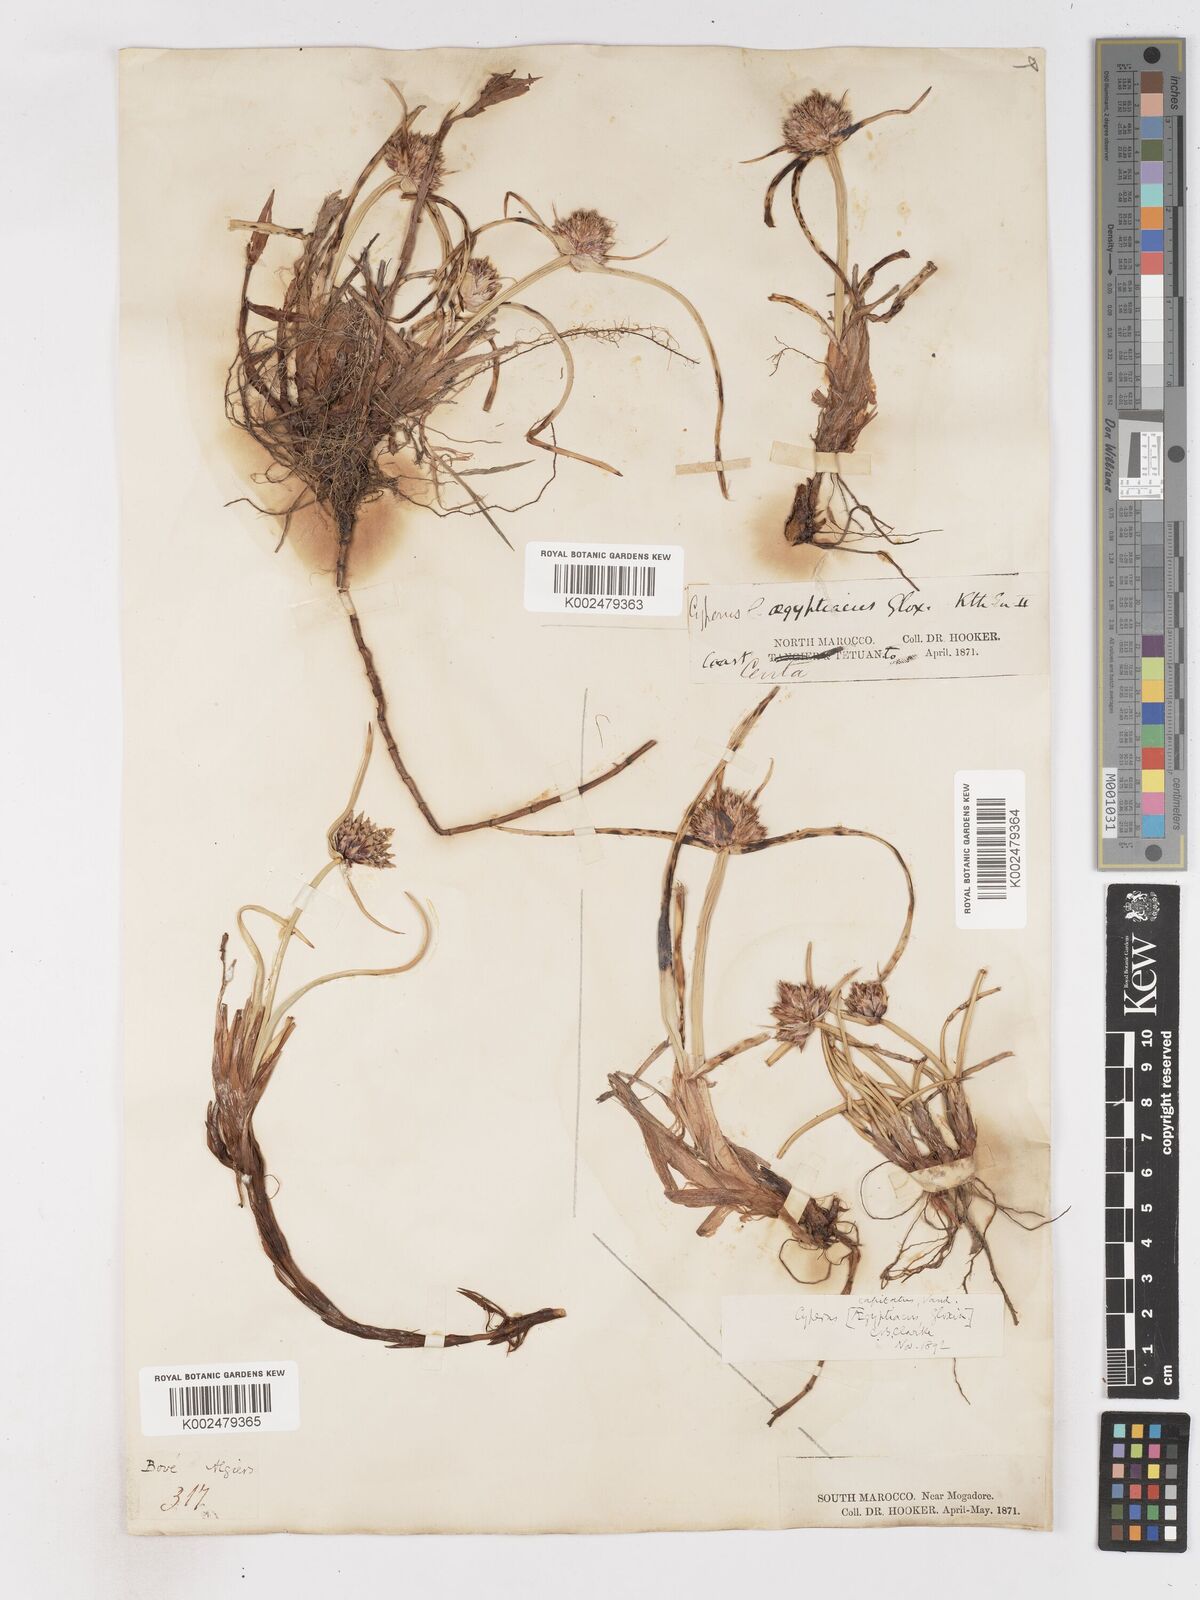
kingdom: Plantae
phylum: Tracheophyta
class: Liliopsida
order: Poales
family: Cyperaceae
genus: Cyperus
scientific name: Cyperus capitatus
